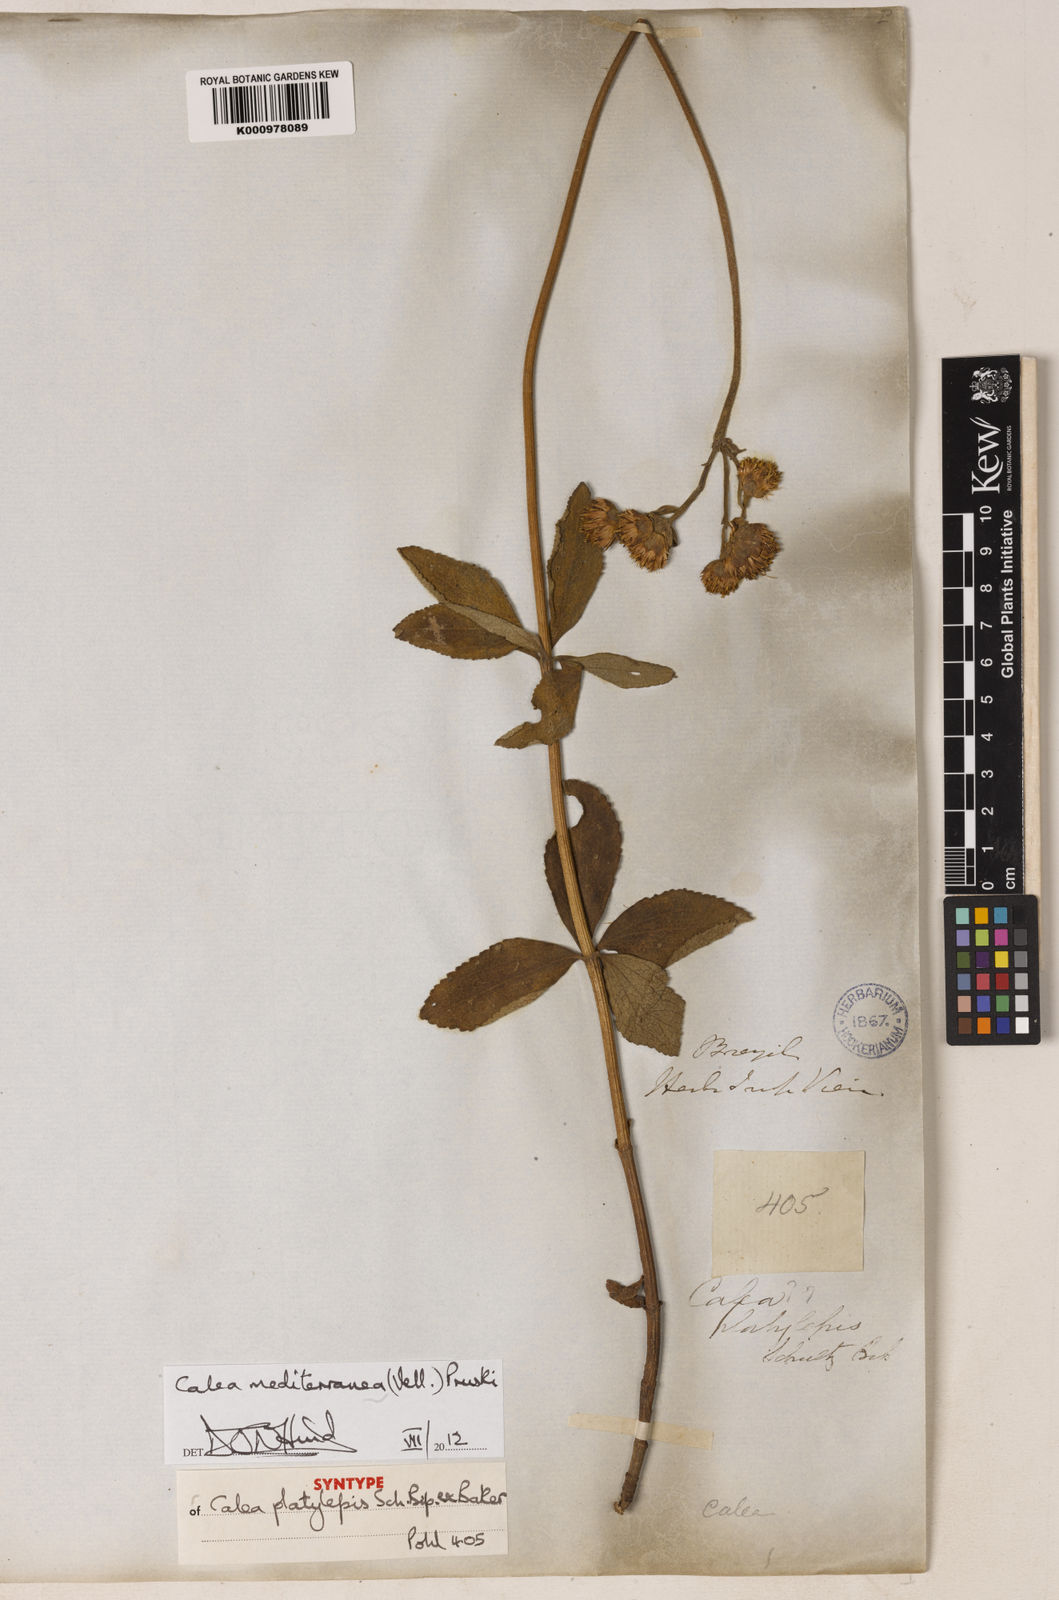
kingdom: Plantae
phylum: Tracheophyta
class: Magnoliopsida
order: Asterales
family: Asteraceae
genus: Calea
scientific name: Calea mediterranea
